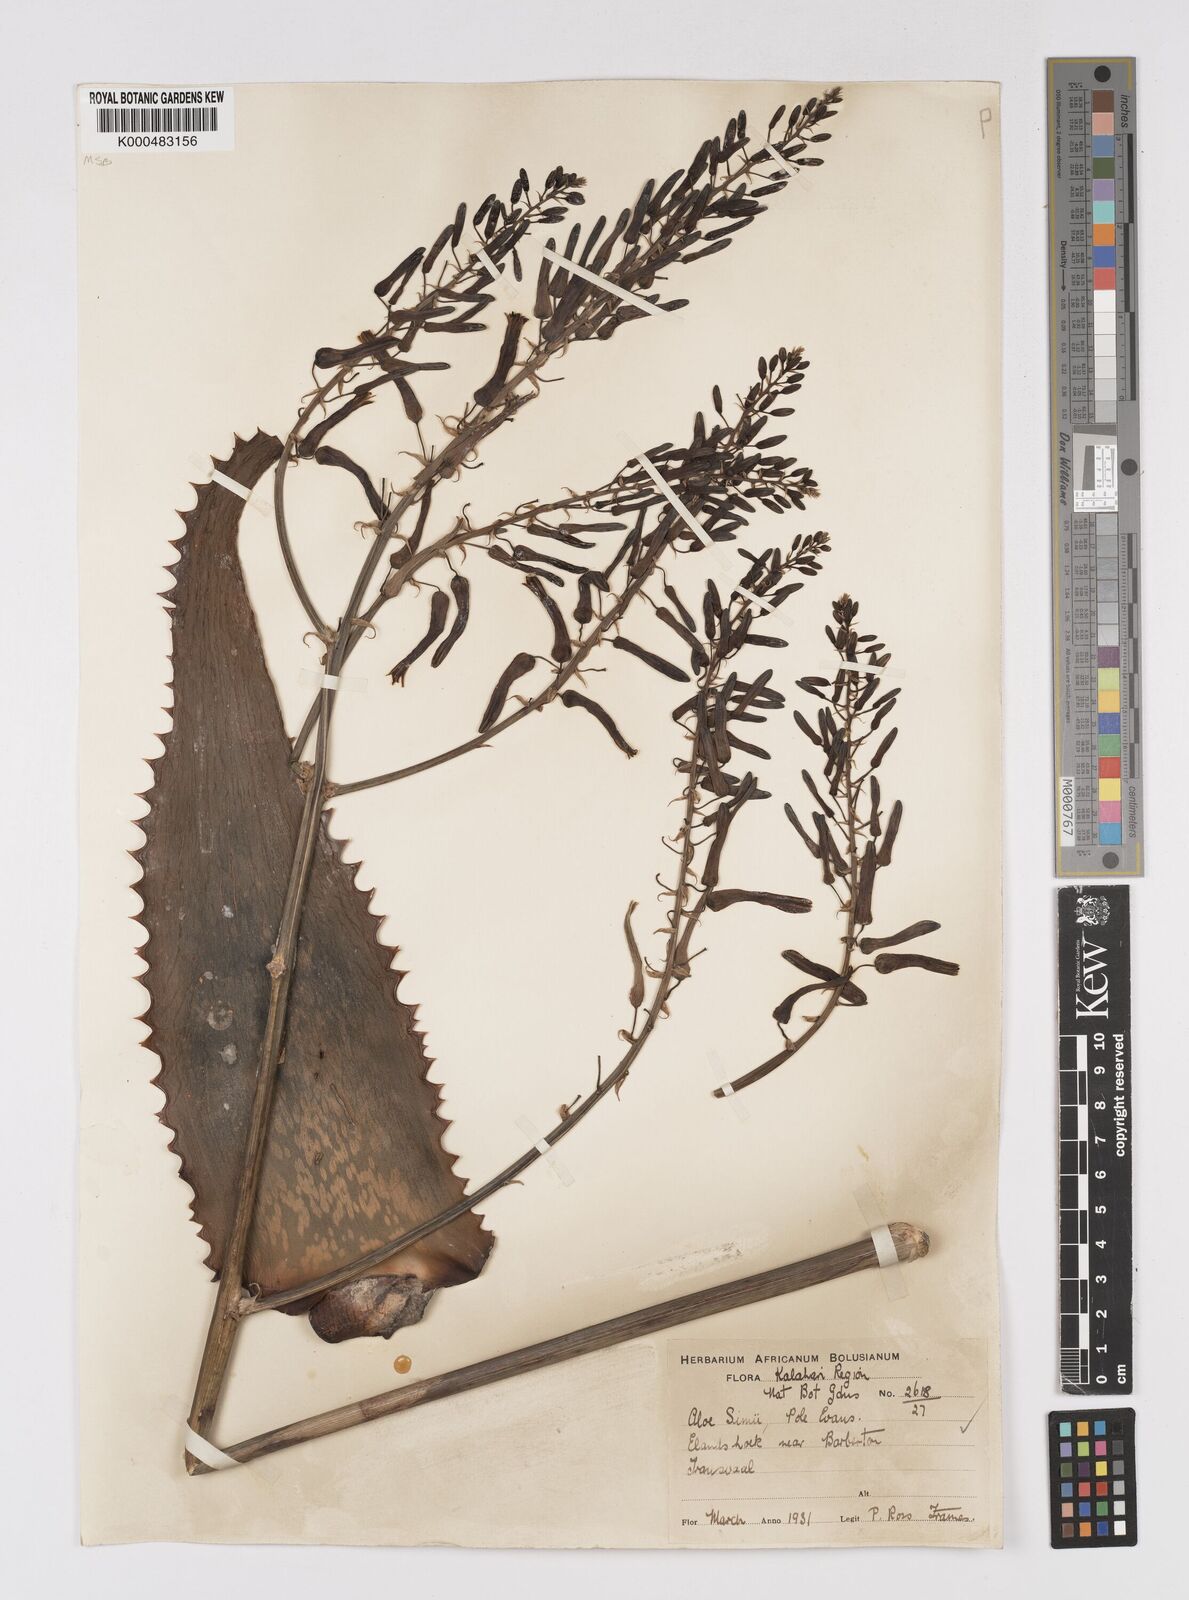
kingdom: Plantae
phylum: Tracheophyta
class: Liliopsida
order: Asparagales
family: Asphodelaceae
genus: Aloe
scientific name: Aloe simii
